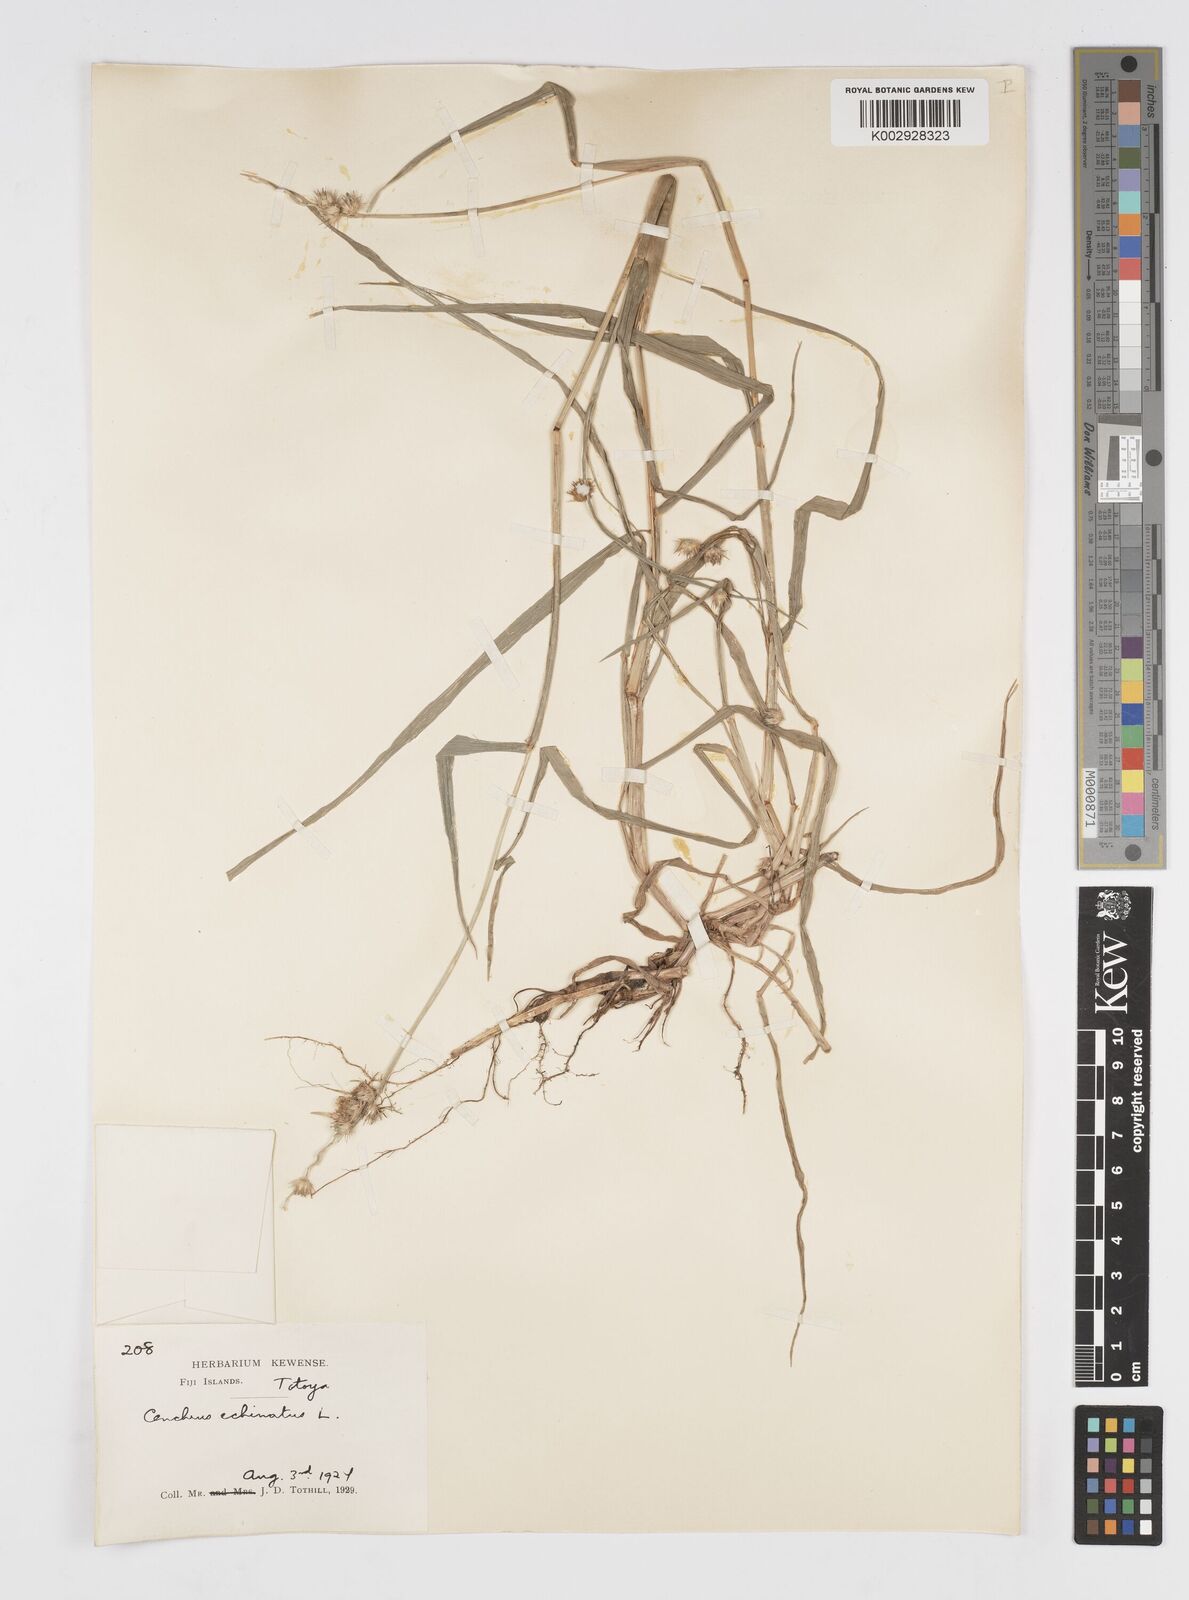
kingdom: Plantae
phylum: Tracheophyta
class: Liliopsida
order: Poales
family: Poaceae
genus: Cenchrus
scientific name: Cenchrus echinatus
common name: Southern sandbur
